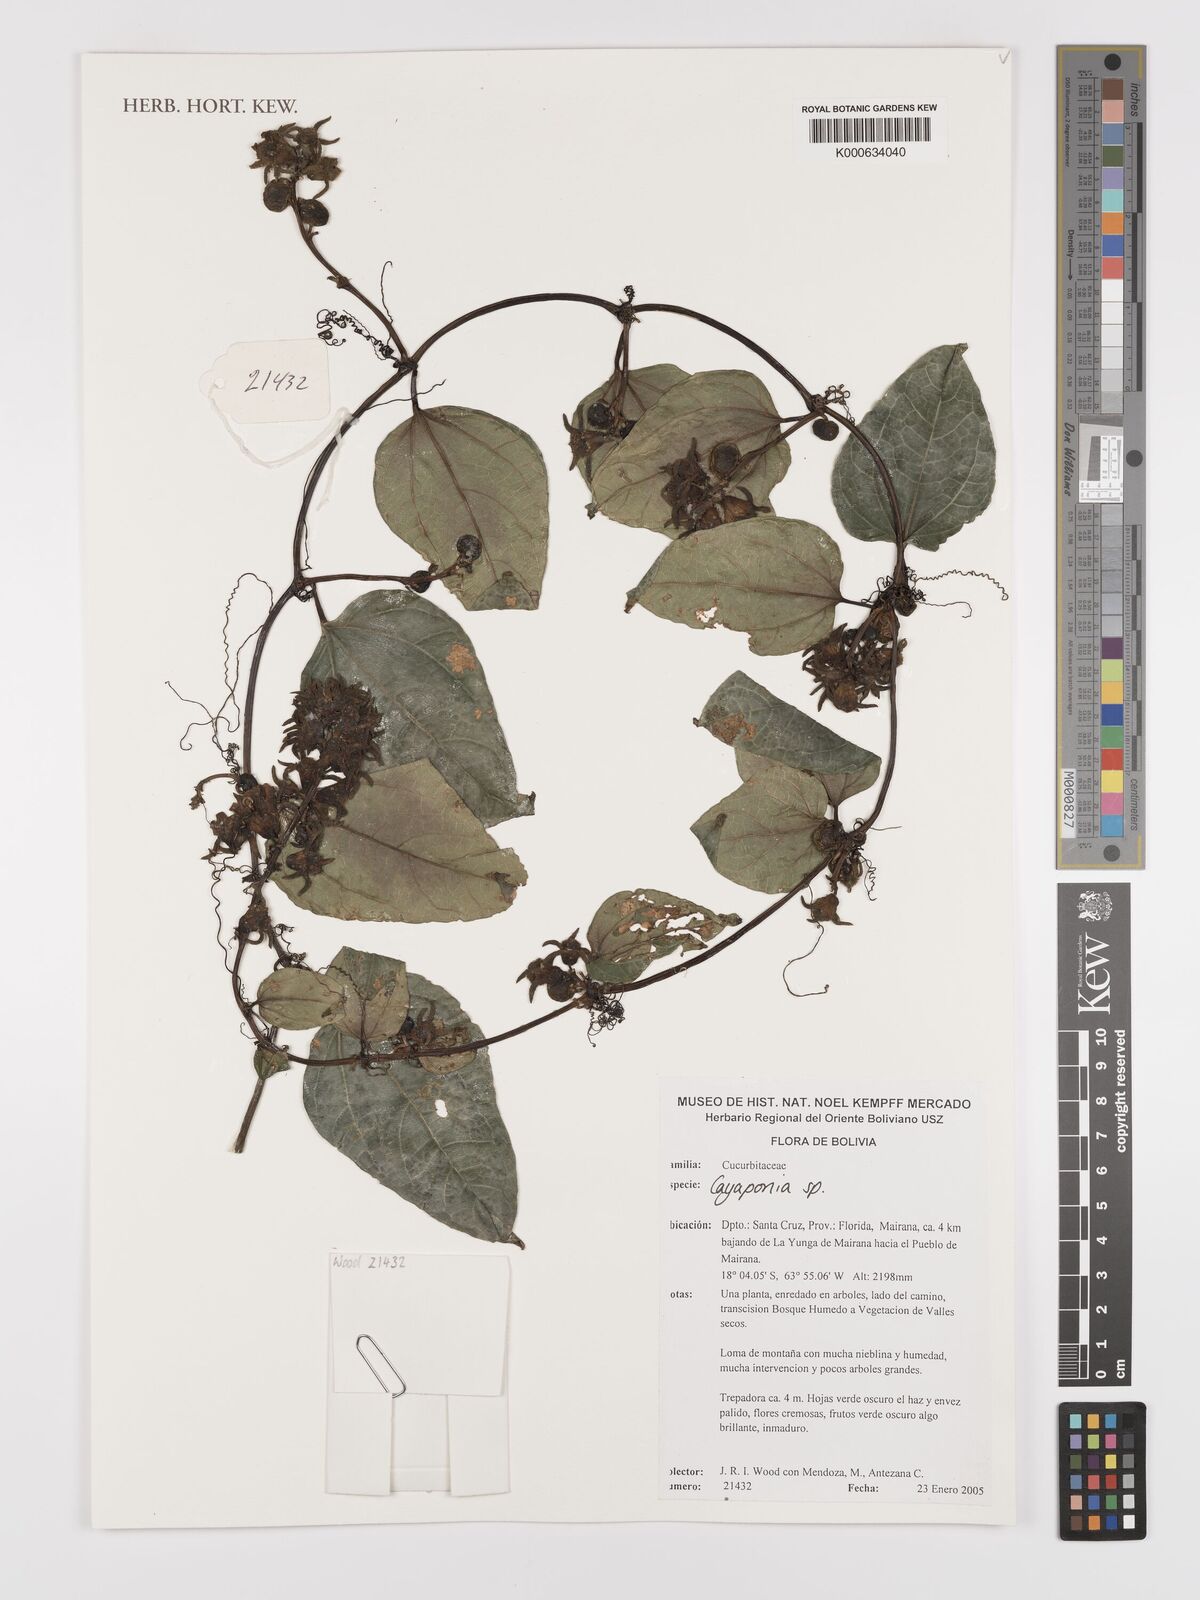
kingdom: Plantae
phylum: Tracheophyta
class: Magnoliopsida
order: Cucurbitales
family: Cucurbitaceae
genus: Cayaponia
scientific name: Cayaponia
